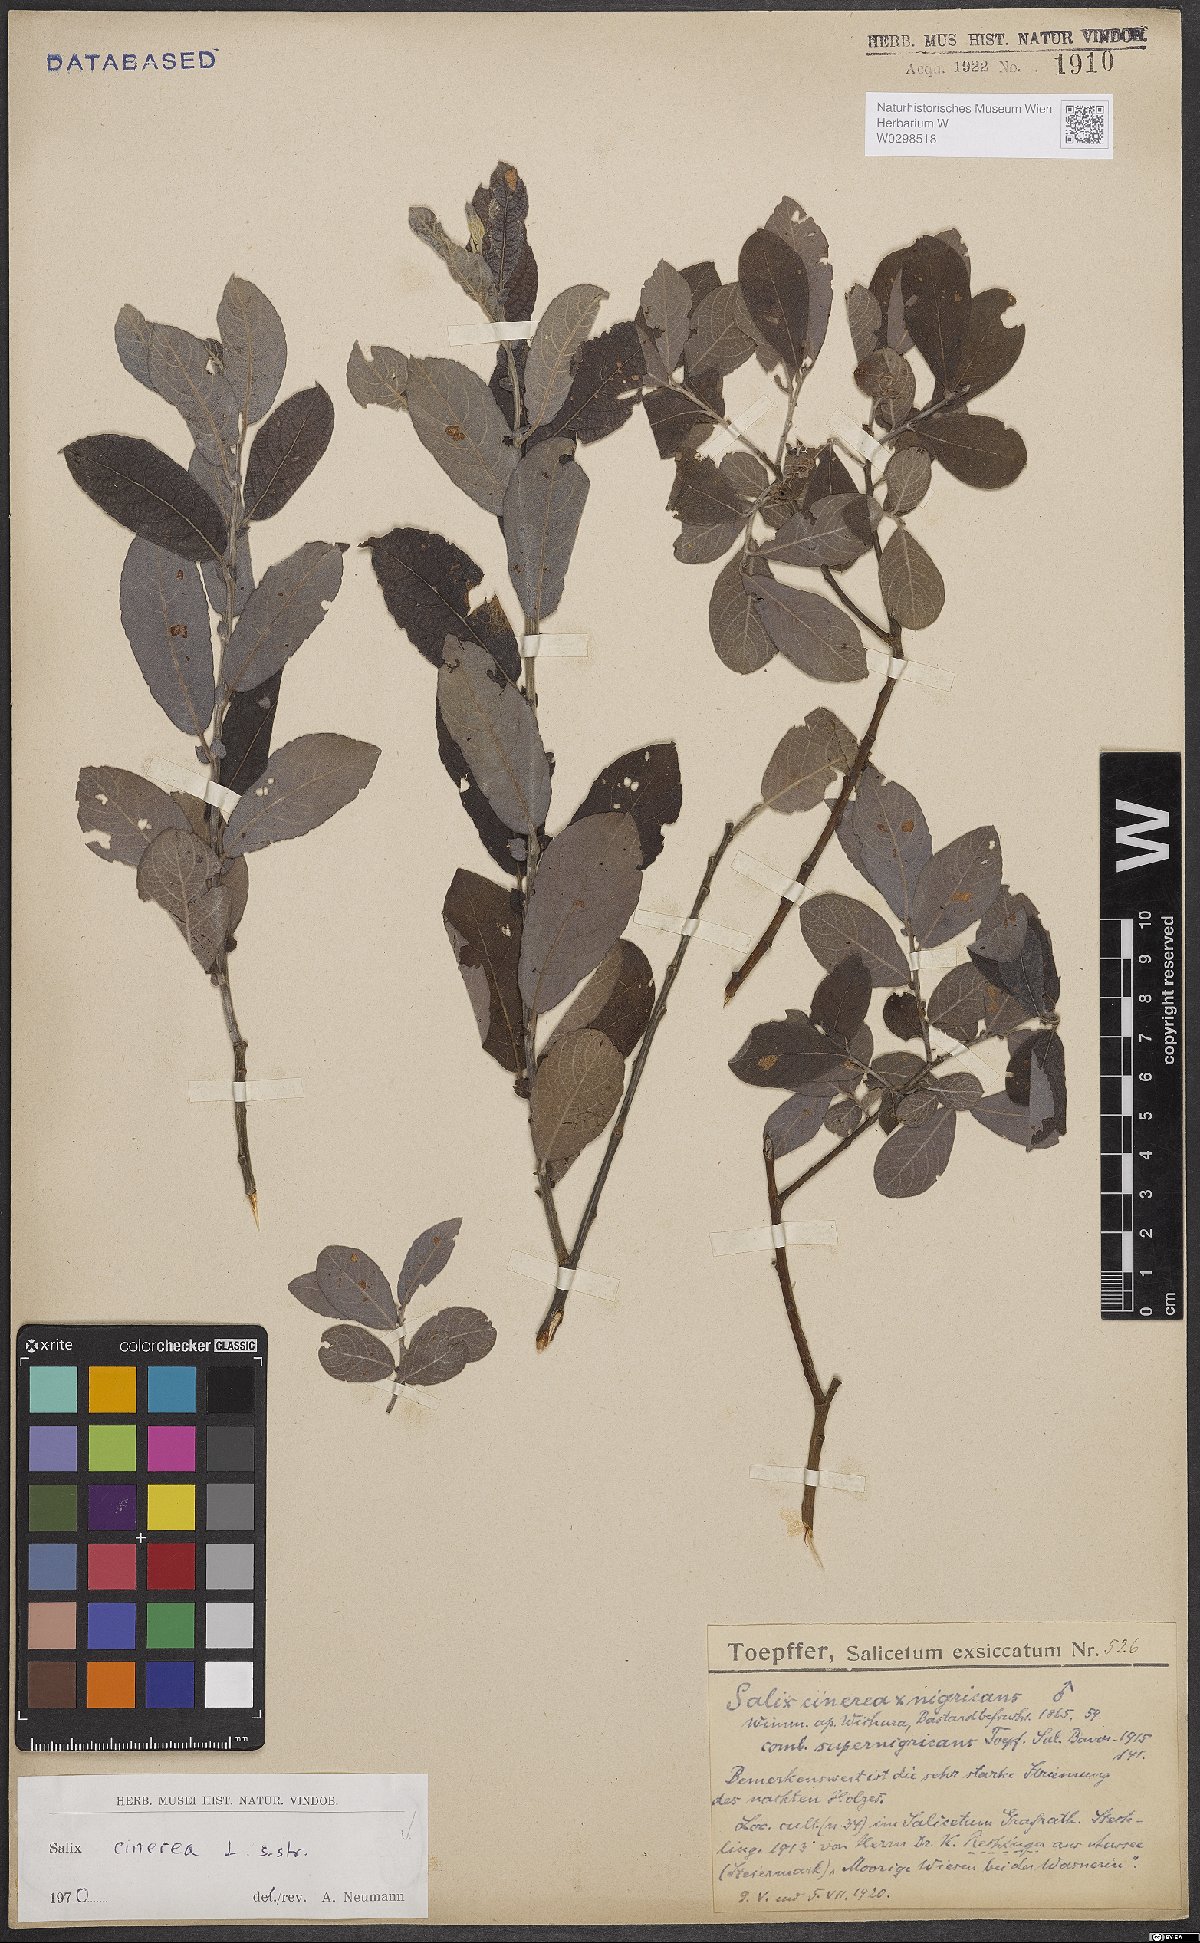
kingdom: Plantae
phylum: Tracheophyta
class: Magnoliopsida
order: Malpighiales
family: Salicaceae
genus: Salix
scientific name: Salix cinerea
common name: Common sallow
